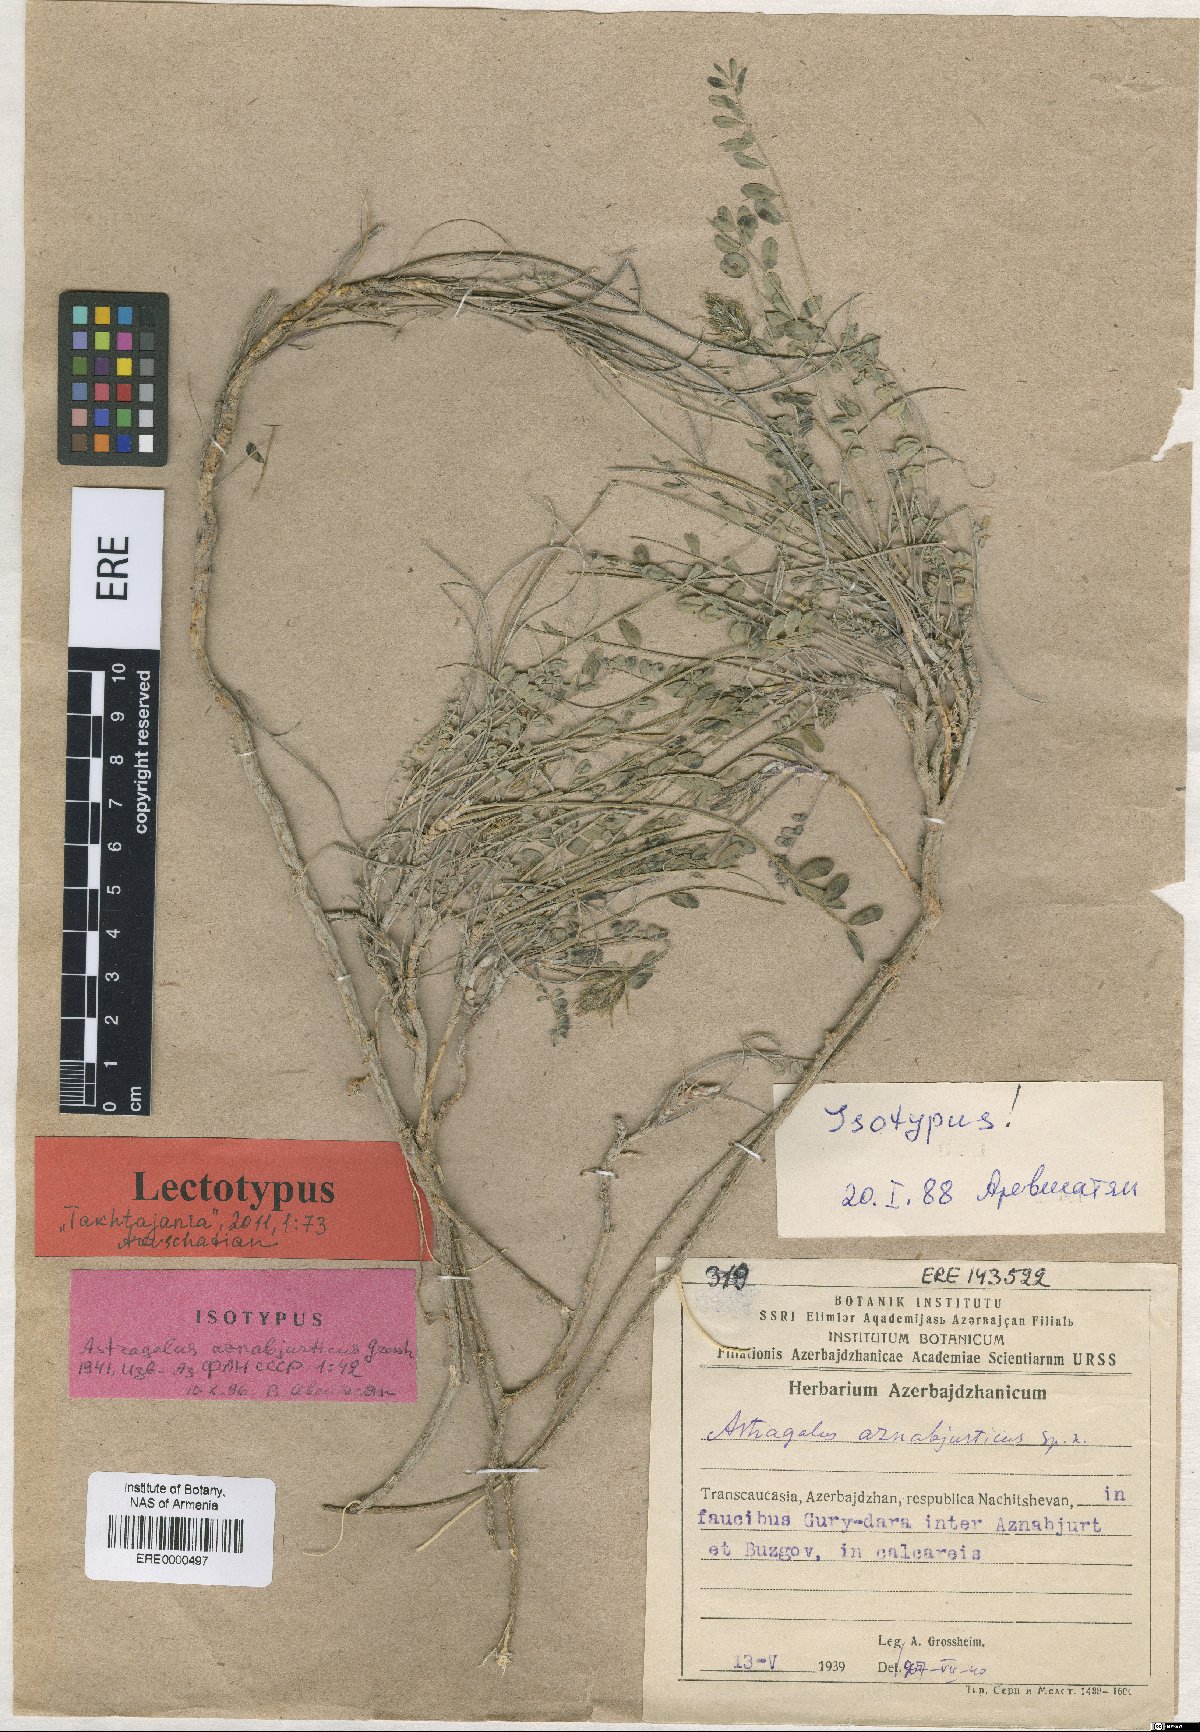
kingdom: Plantae
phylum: Tracheophyta
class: Magnoliopsida
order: Fabales
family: Fabaceae
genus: Astragalus
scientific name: Astragalus aznabjurticus
